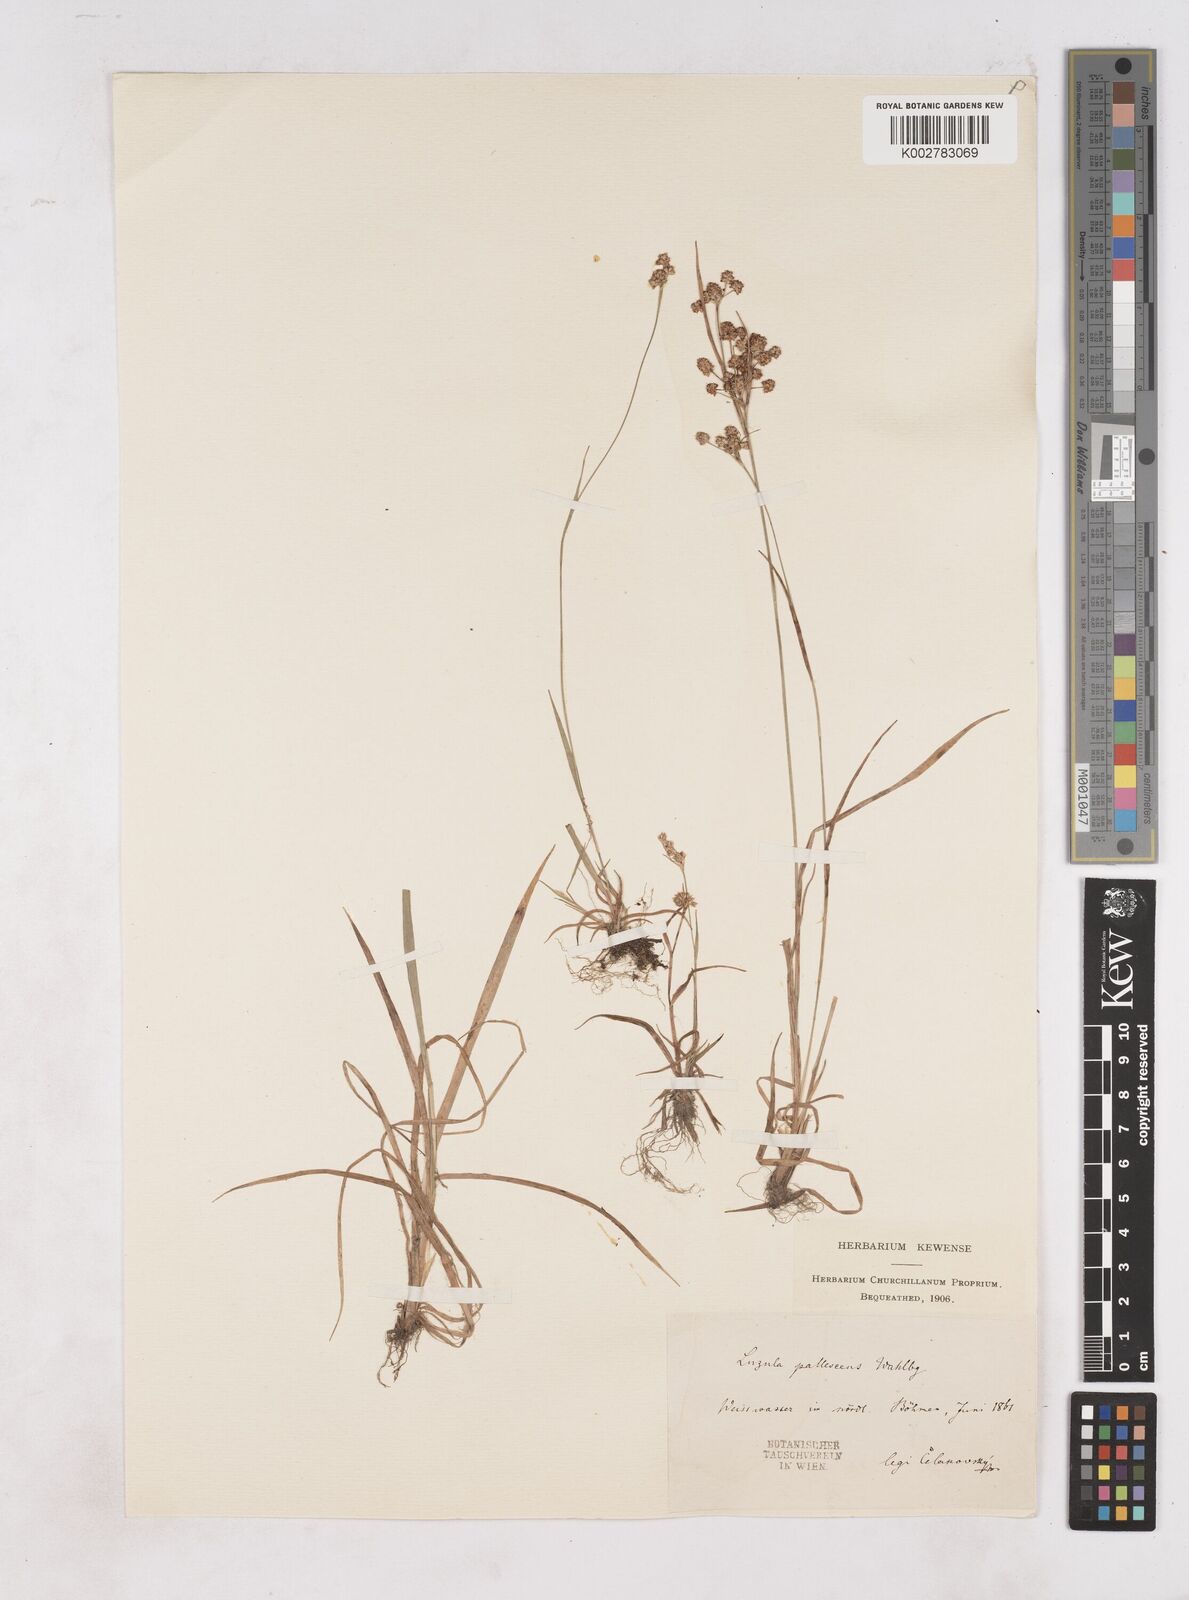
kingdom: Plantae
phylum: Tracheophyta
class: Liliopsida
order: Poales
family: Juncaceae
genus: Luzula
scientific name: Luzula pallescens
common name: Fen wood-rush
